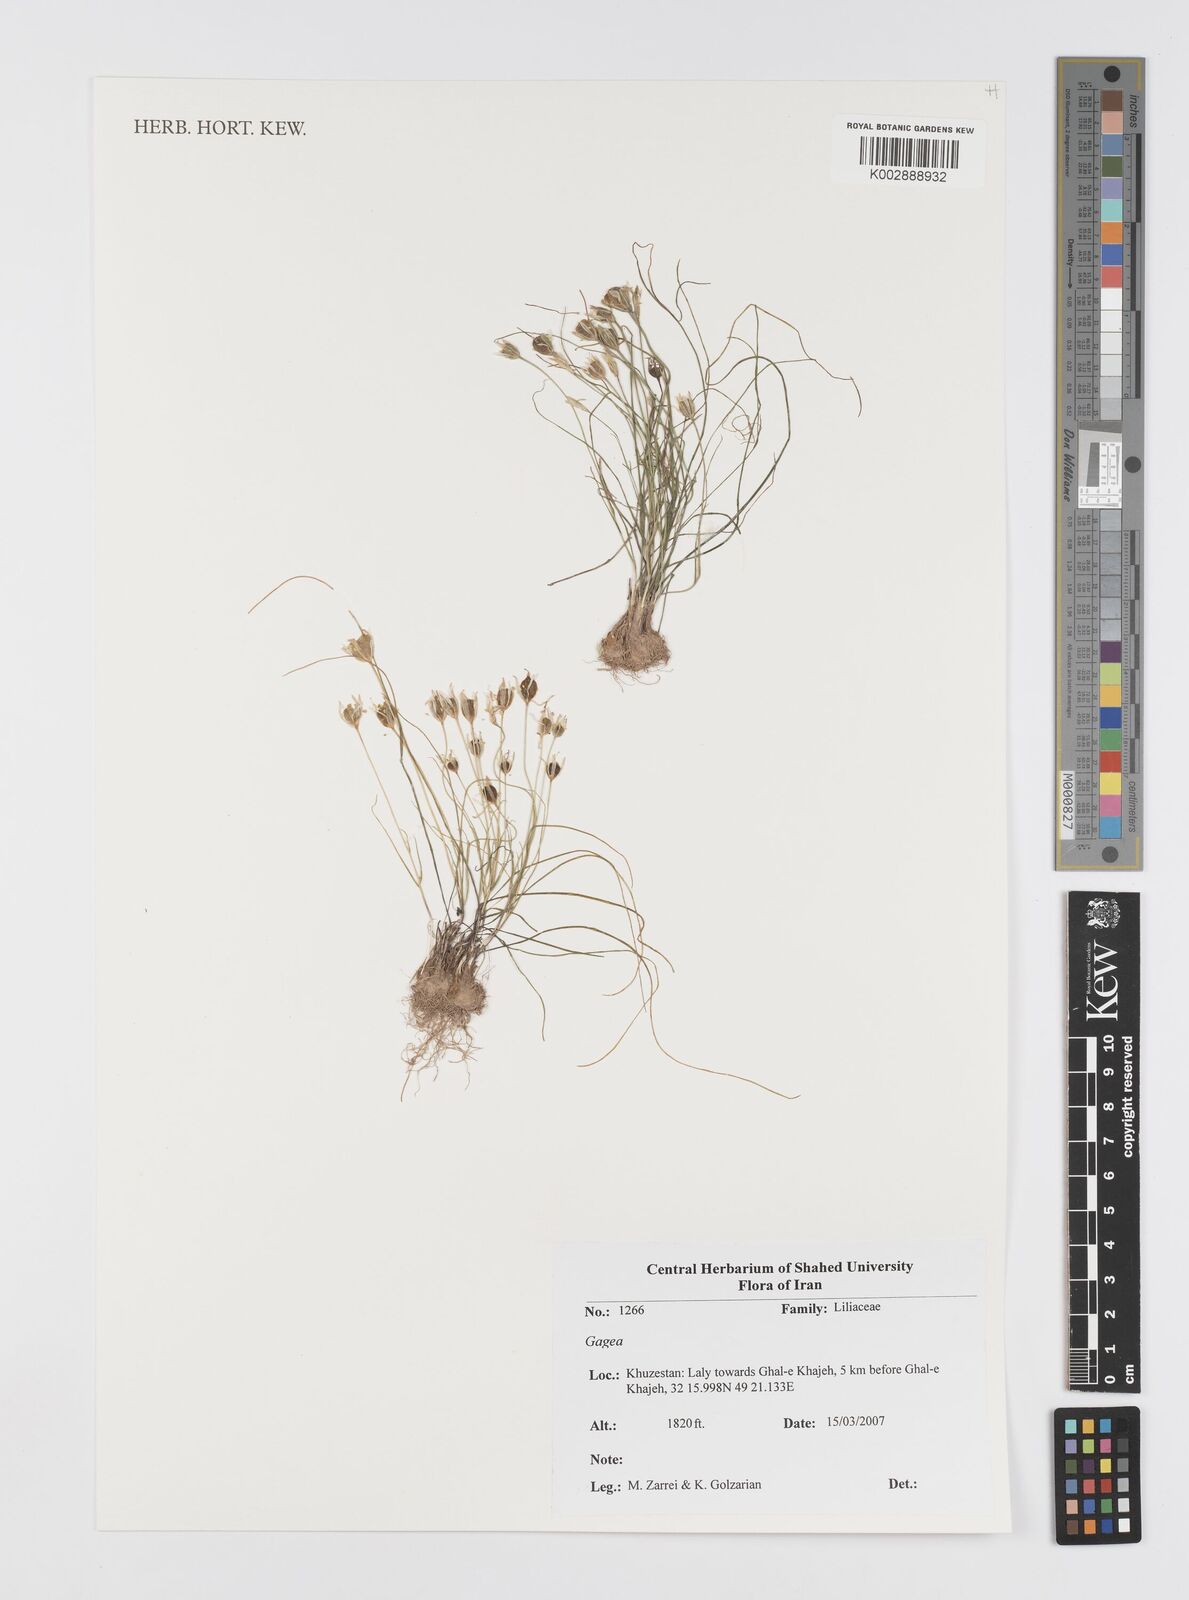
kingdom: Plantae
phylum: Tracheophyta
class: Liliopsida
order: Liliales
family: Liliaceae
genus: Gagea
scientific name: Gagea
